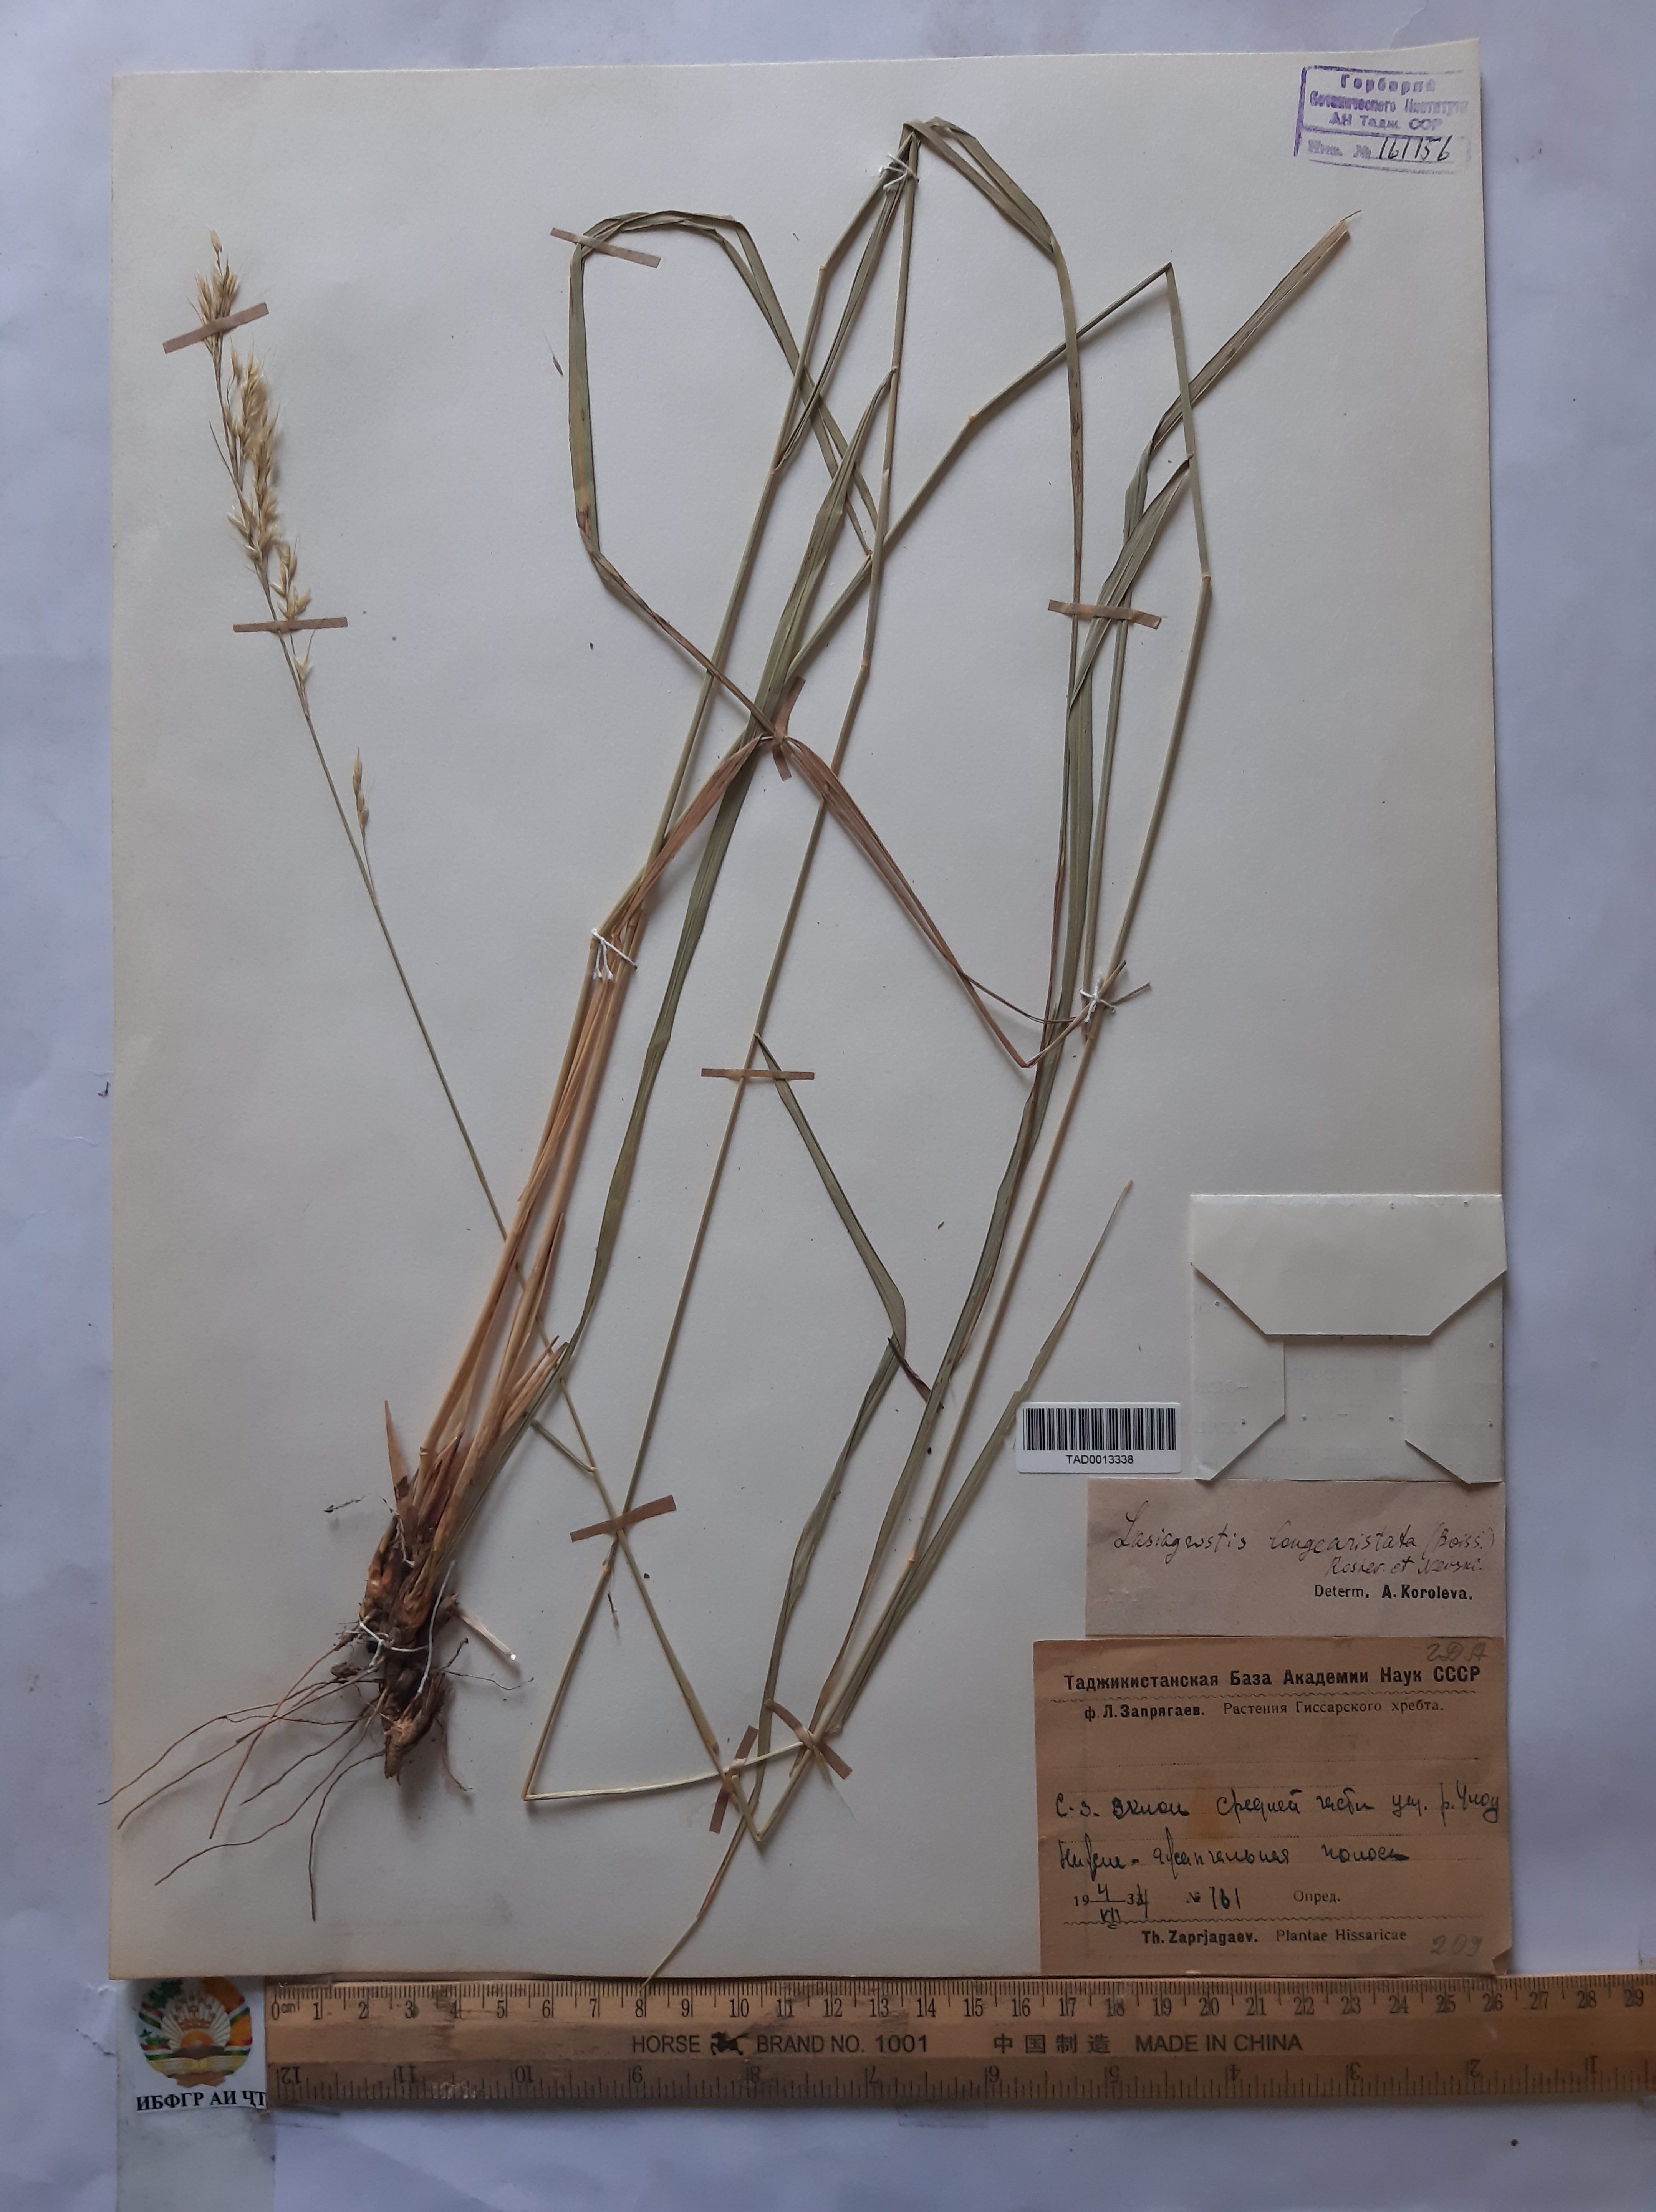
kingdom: Plantae
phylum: Tracheophyta
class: Liliopsida
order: Poales
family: Poaceae
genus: Achnatherum
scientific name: Achnatherum turcomanicum
